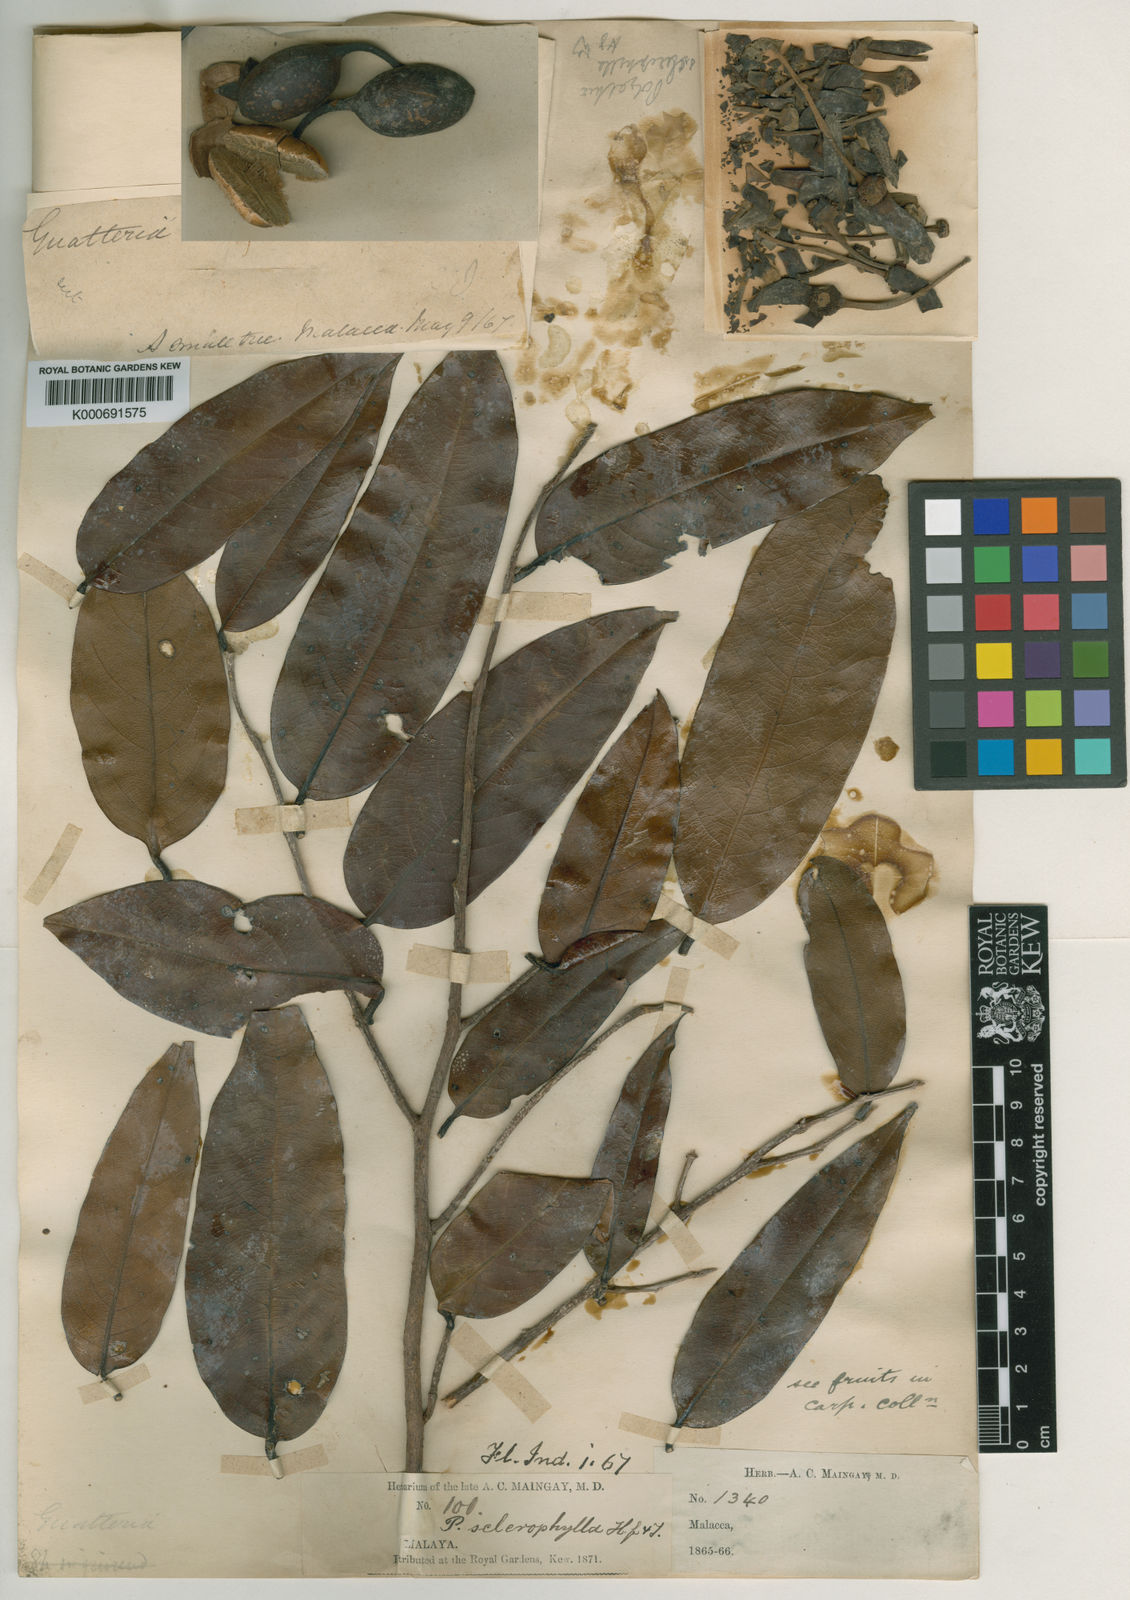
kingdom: Plantae
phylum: Tracheophyta
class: Magnoliopsida
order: Magnoliales
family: Annonaceae
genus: Polyalthia
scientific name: Polyalthia sclerophylla
